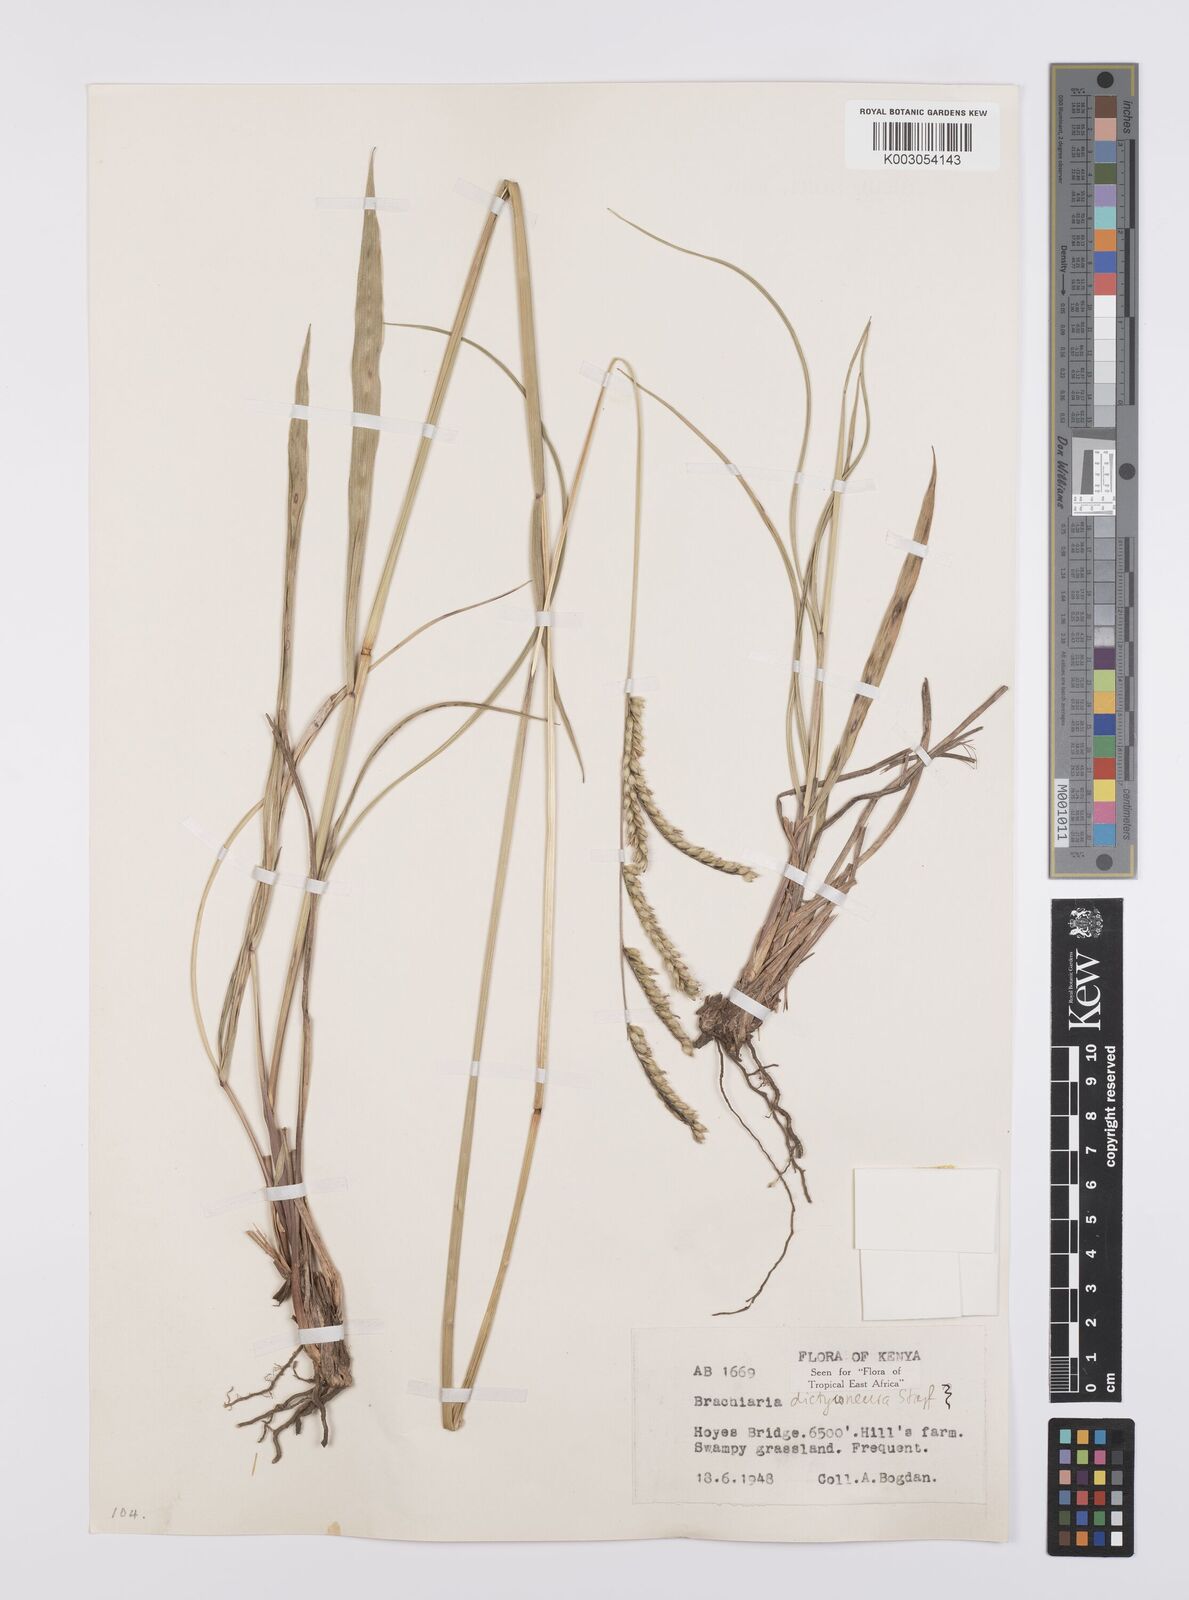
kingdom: Plantae
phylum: Tracheophyta
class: Liliopsida
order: Poales
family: Poaceae
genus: Urochloa
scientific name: Urochloa dictyoneura
